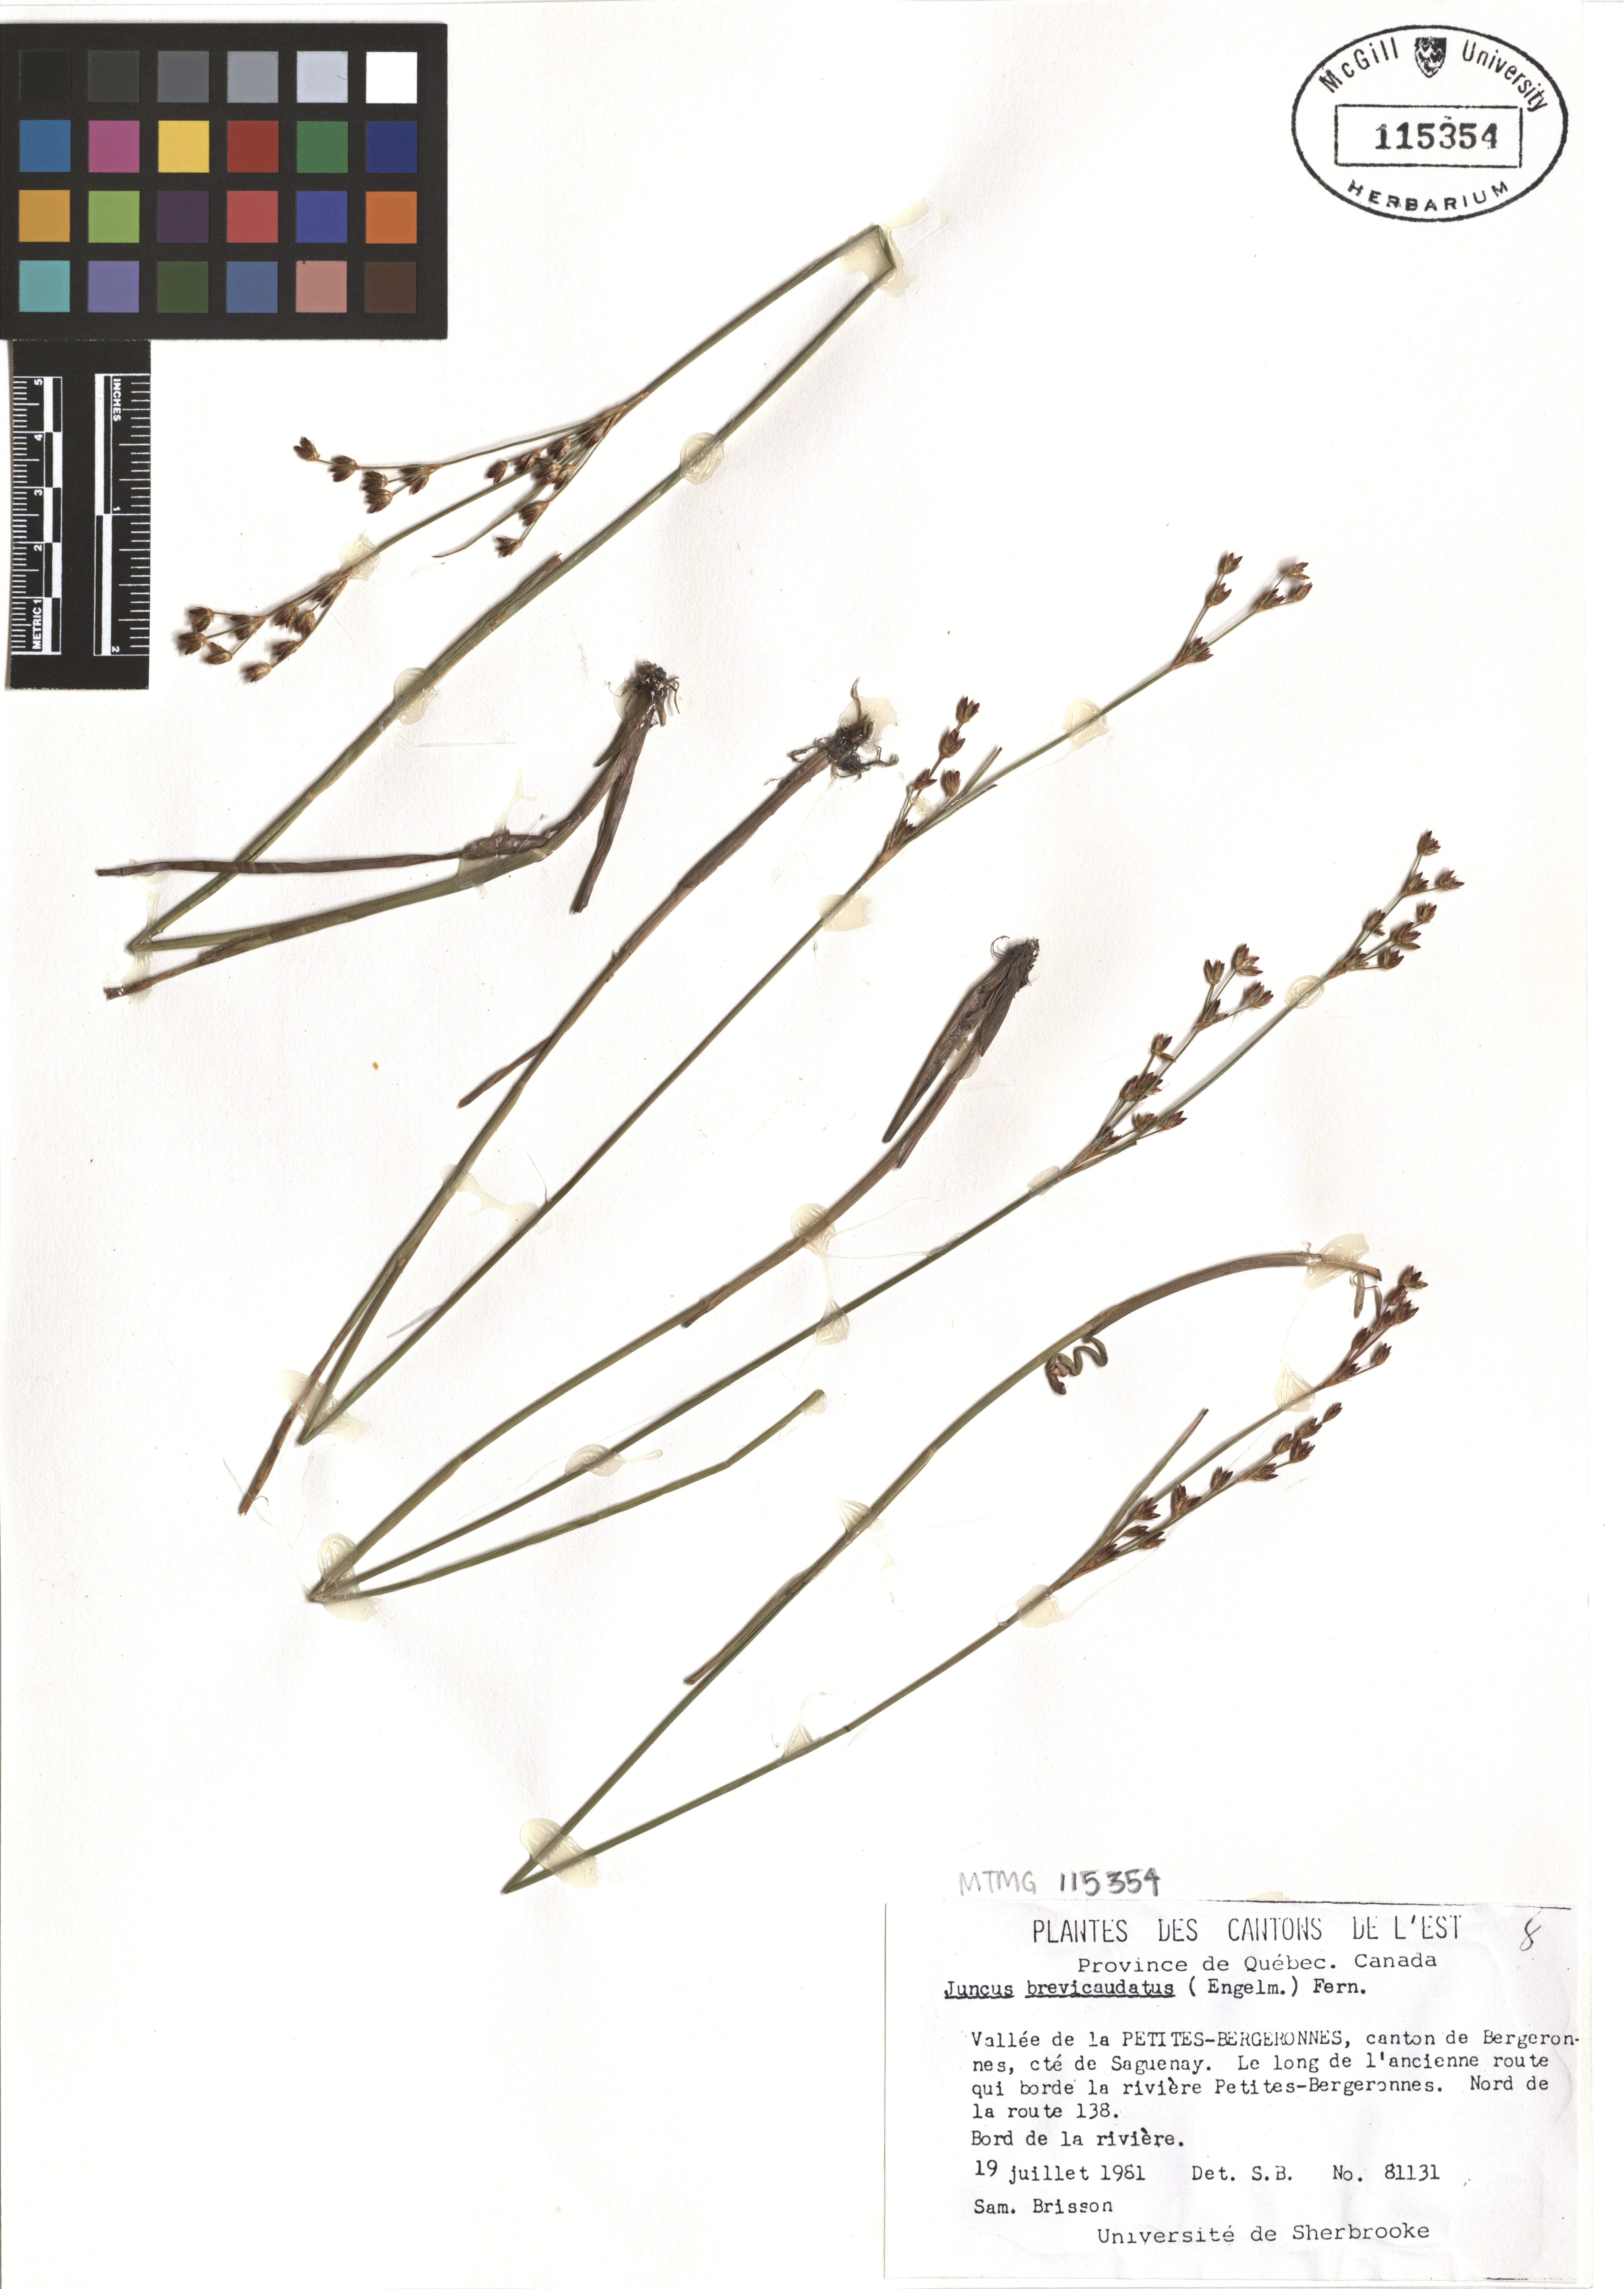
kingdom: Plantae
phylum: Tracheophyta
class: Liliopsida
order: Poales
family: Juncaceae
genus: Juncus
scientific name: Juncus brevicaudatus
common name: Narrow-panicle rush
